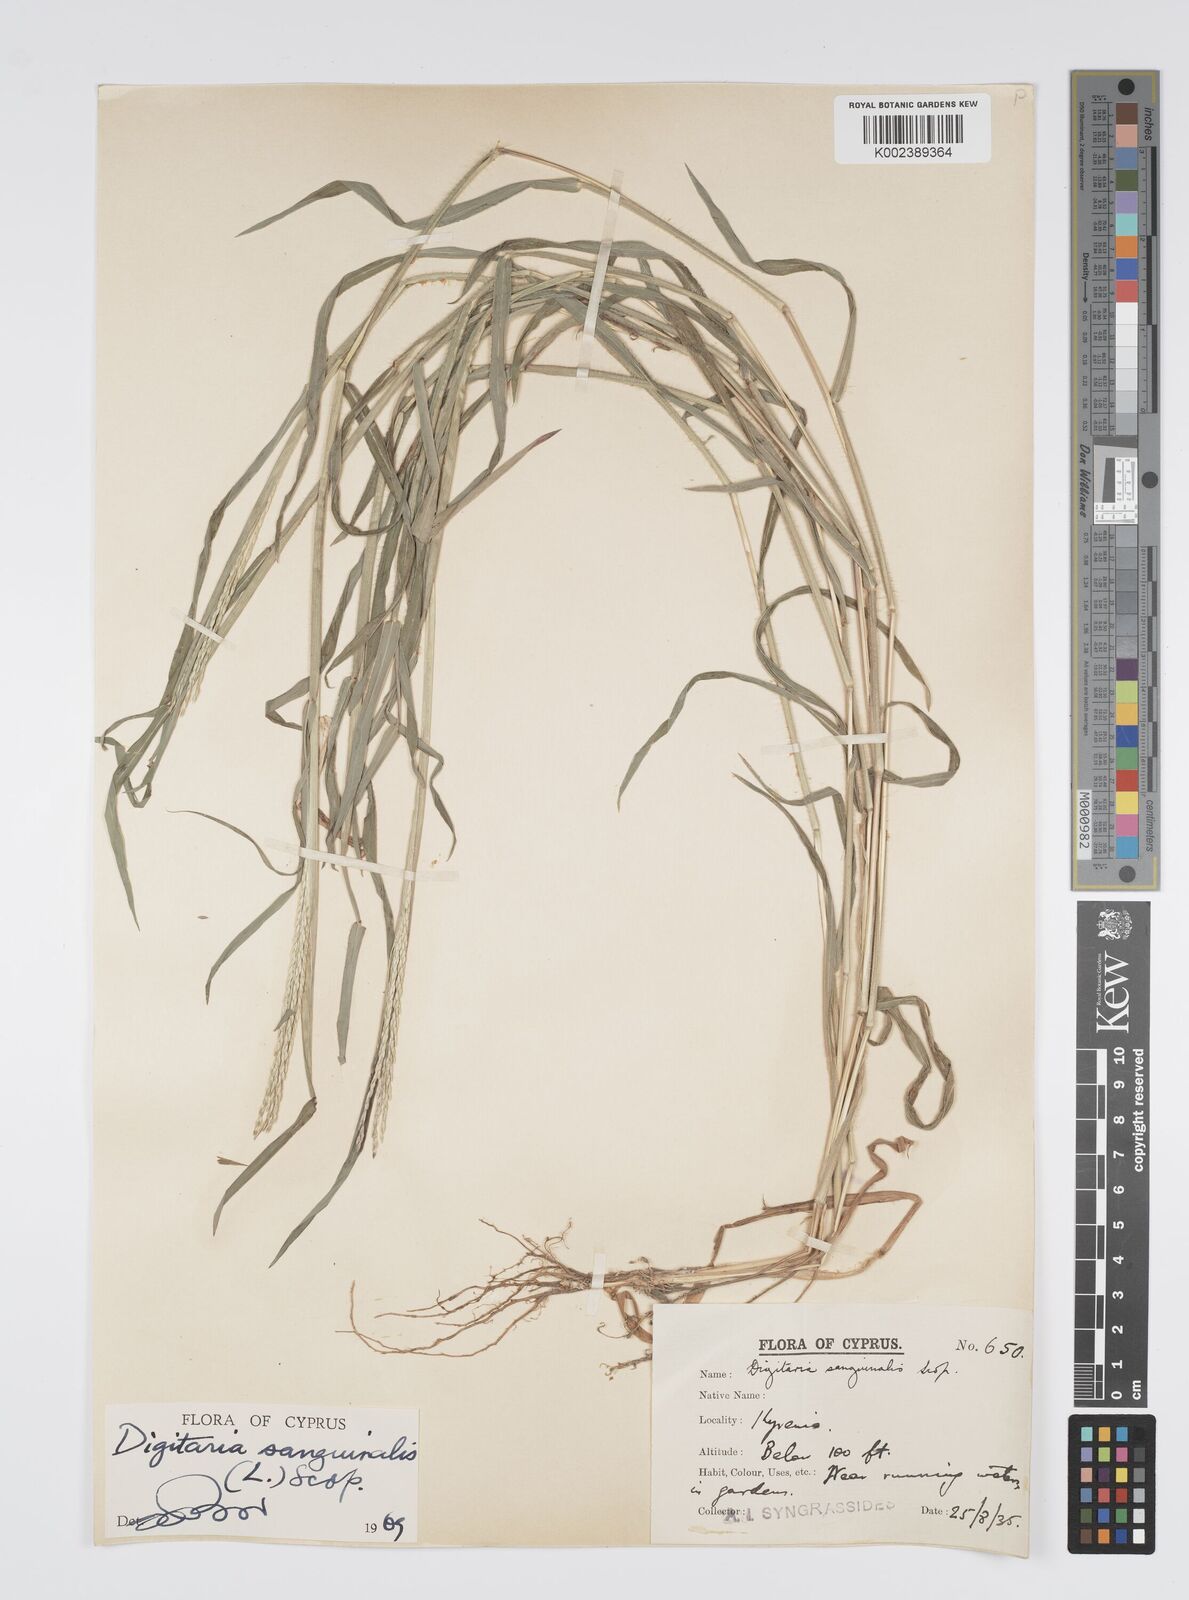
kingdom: Plantae
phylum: Tracheophyta
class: Liliopsida
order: Poales
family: Poaceae
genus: Digitaria
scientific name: Digitaria sanguinalis
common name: Hairy crabgrass
